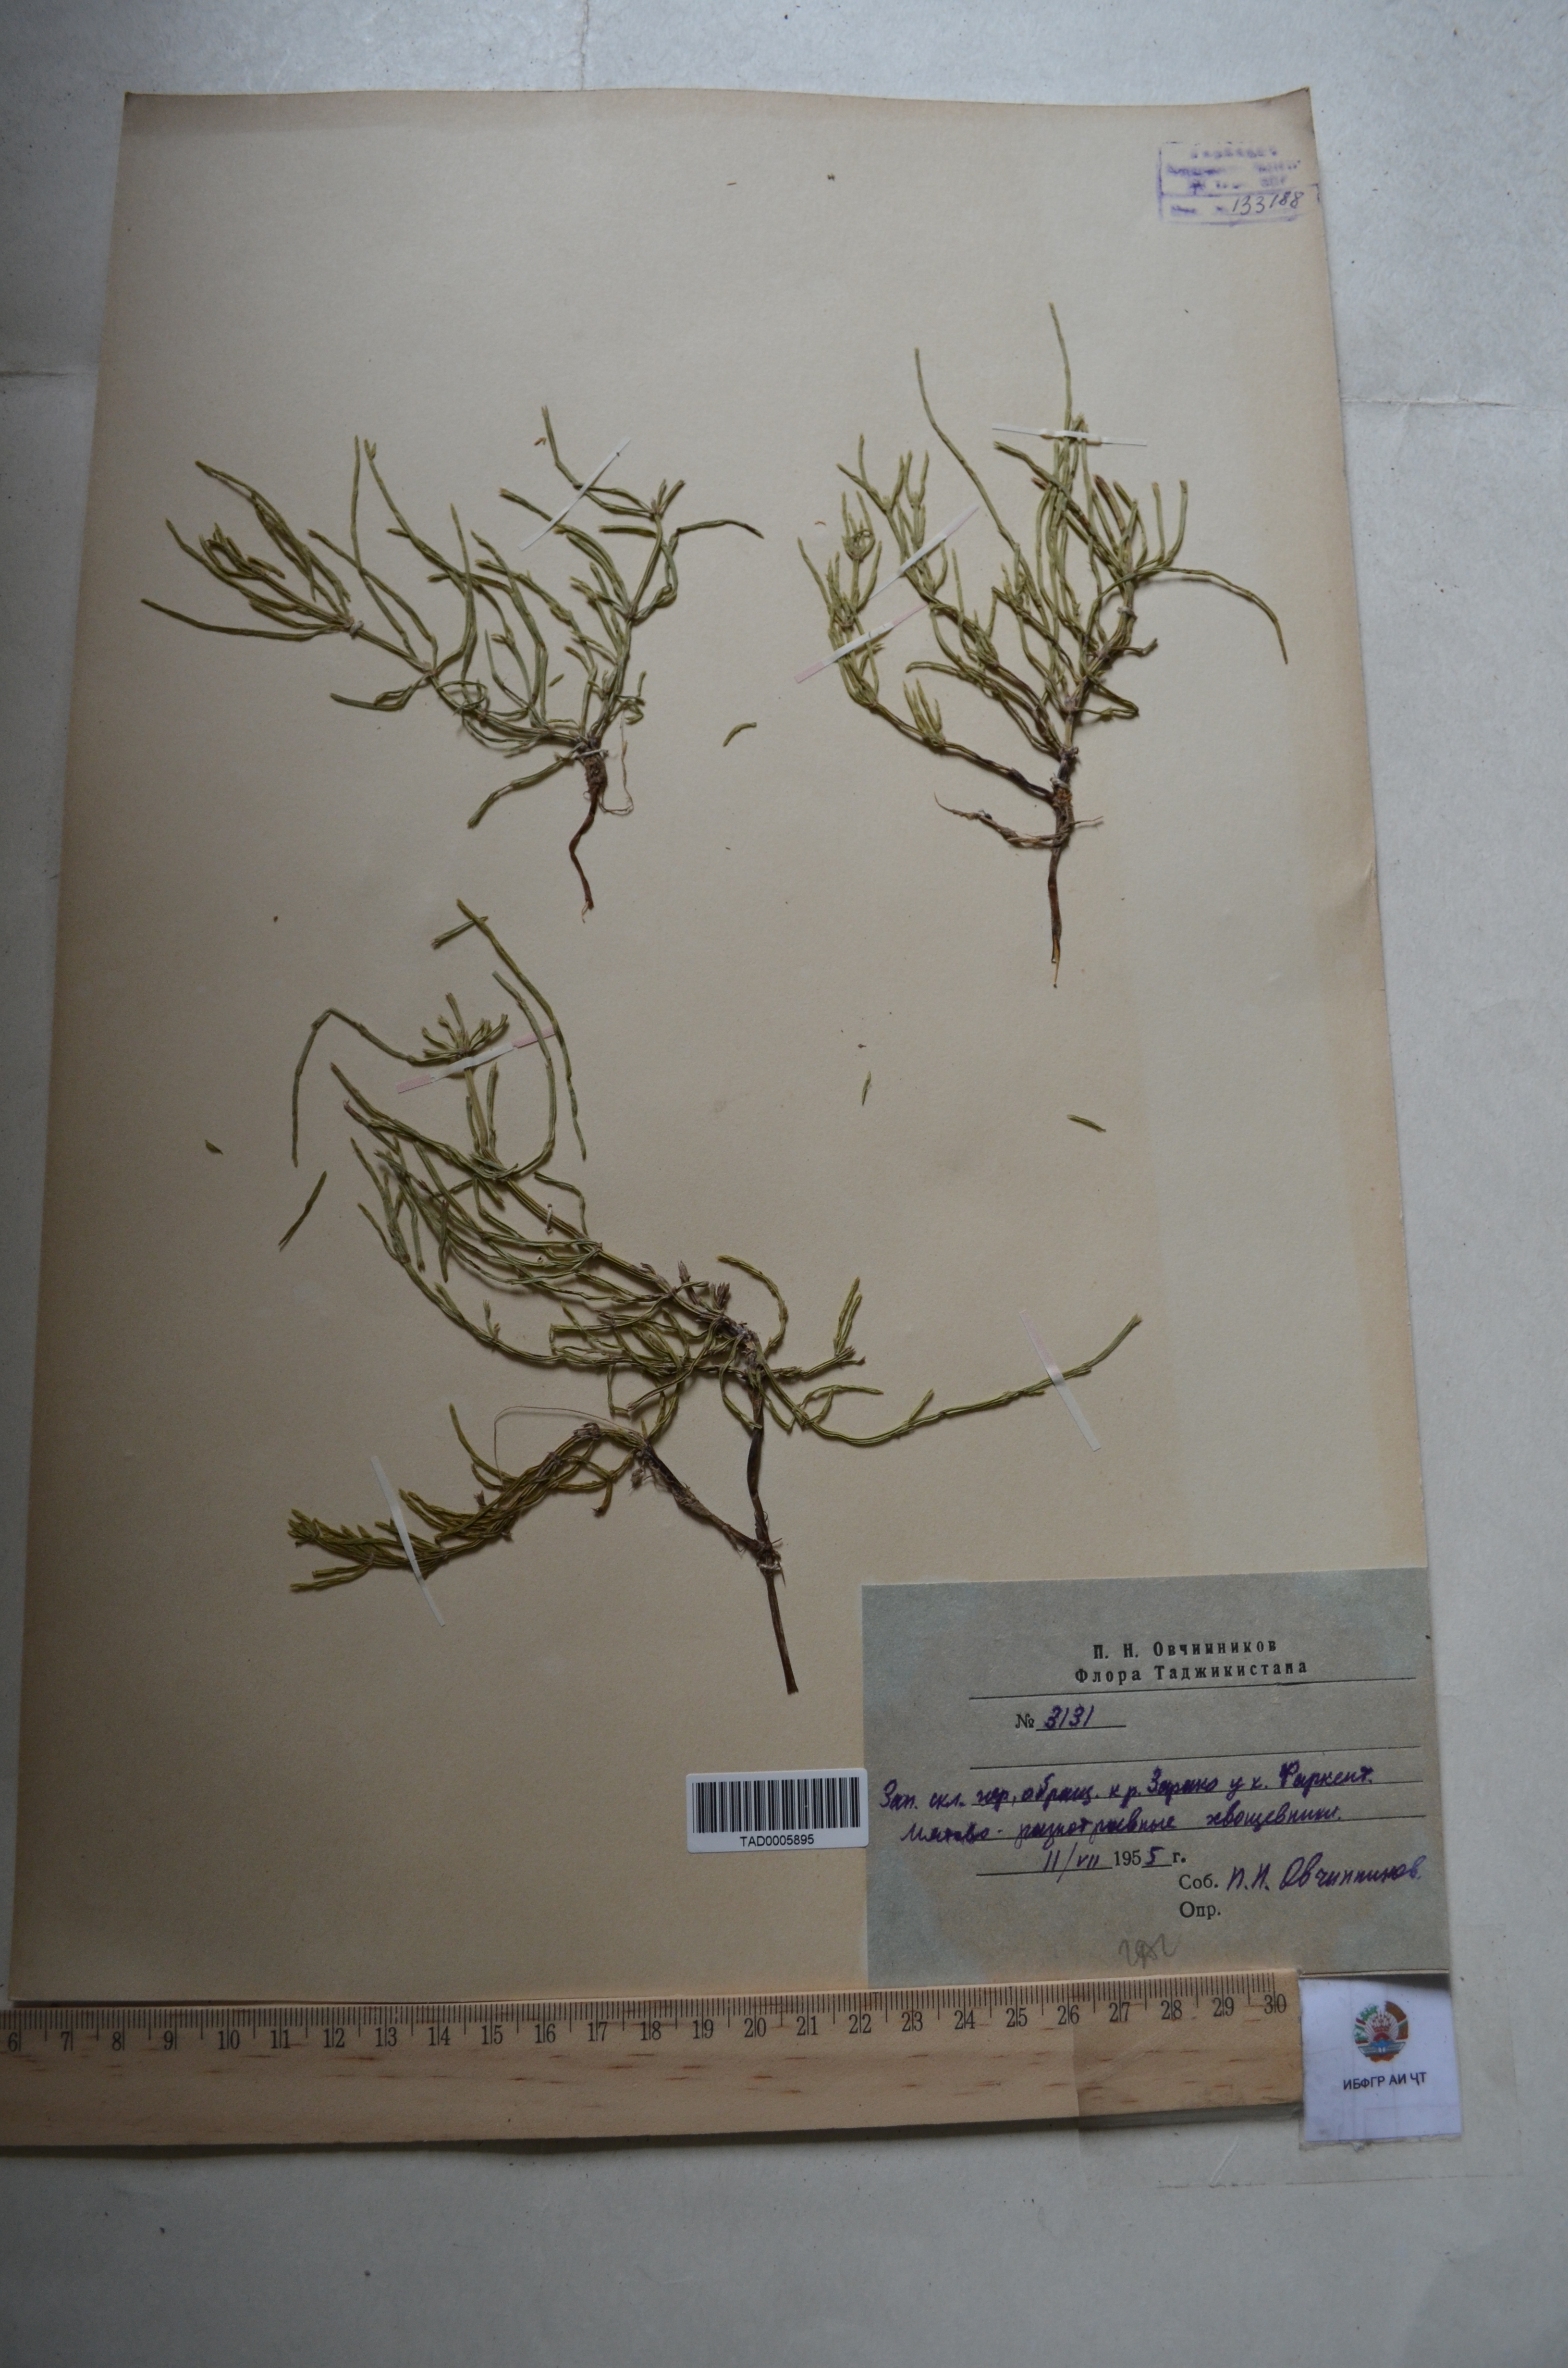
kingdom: Plantae
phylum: Tracheophyta
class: Polypodiopsida
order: Equisetales
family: Equisetaceae
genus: Equisetum
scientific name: Equisetum ramosissimum
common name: Branched horsetail
